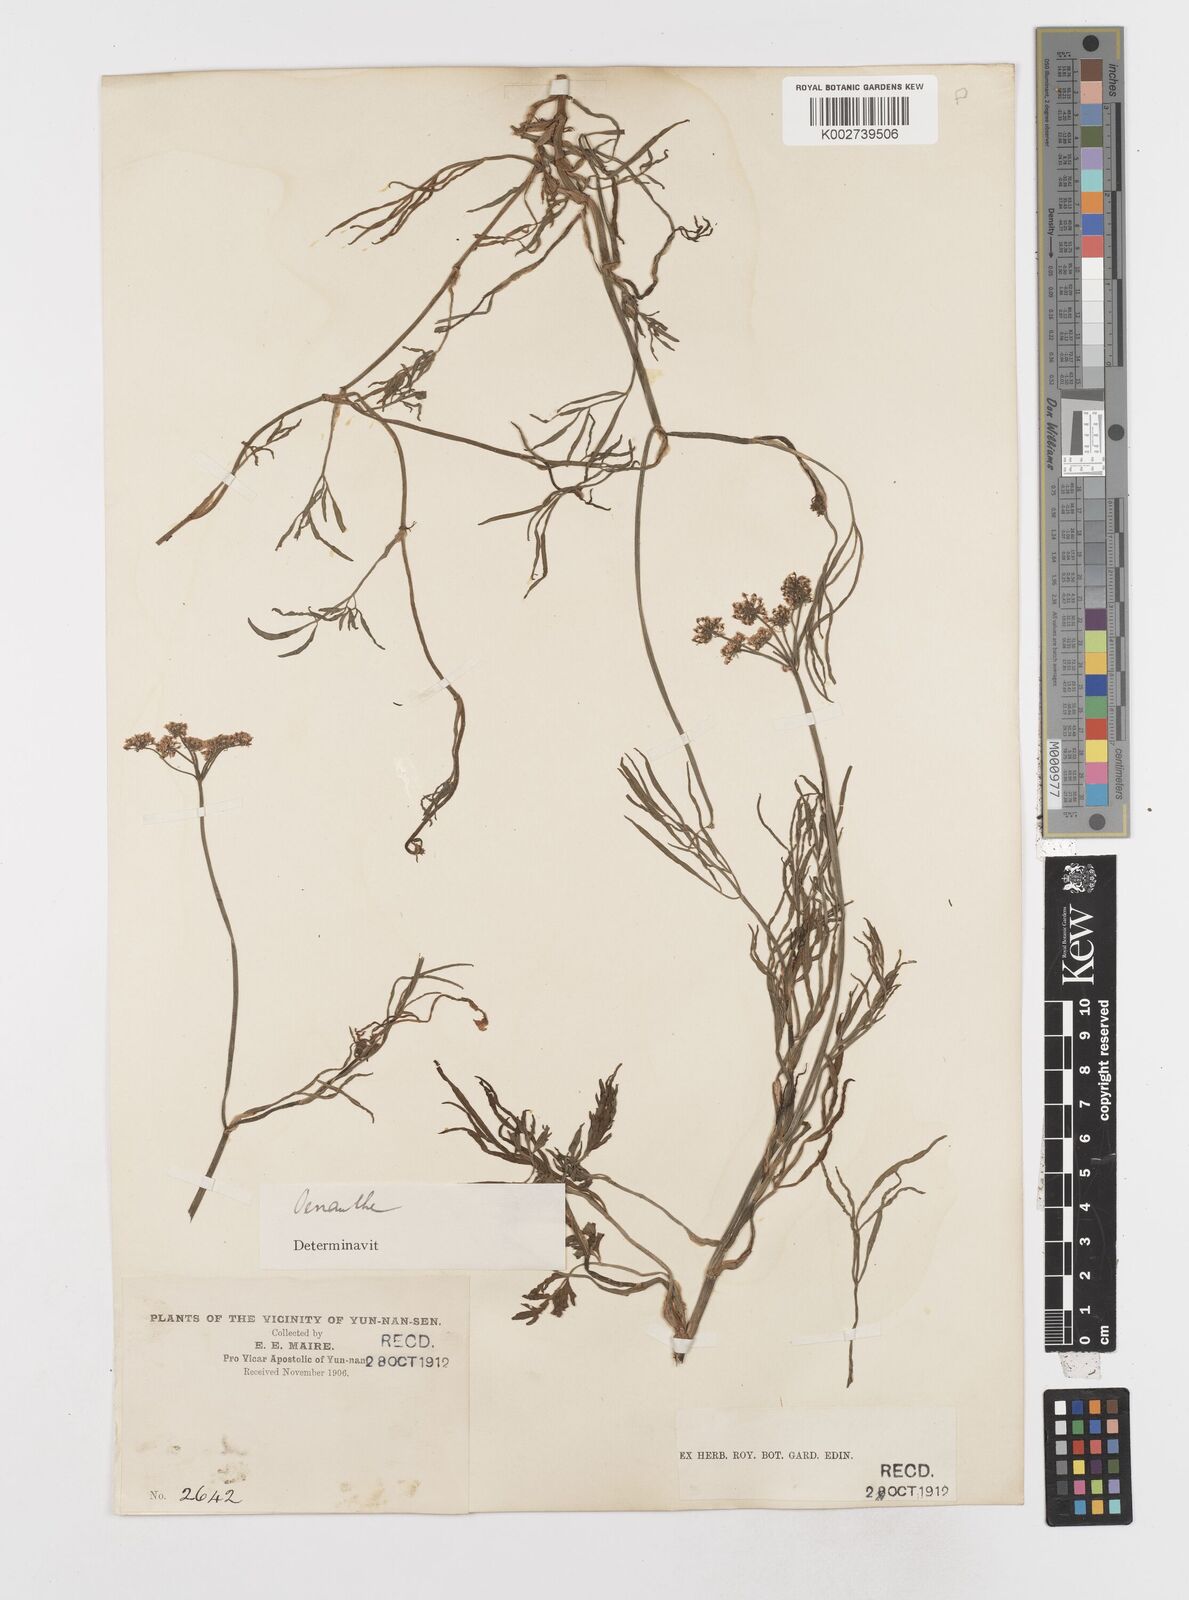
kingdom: Plantae
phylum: Tracheophyta
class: Magnoliopsida
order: Apiales
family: Apiaceae
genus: Oenanthe
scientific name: Oenanthe linearis
